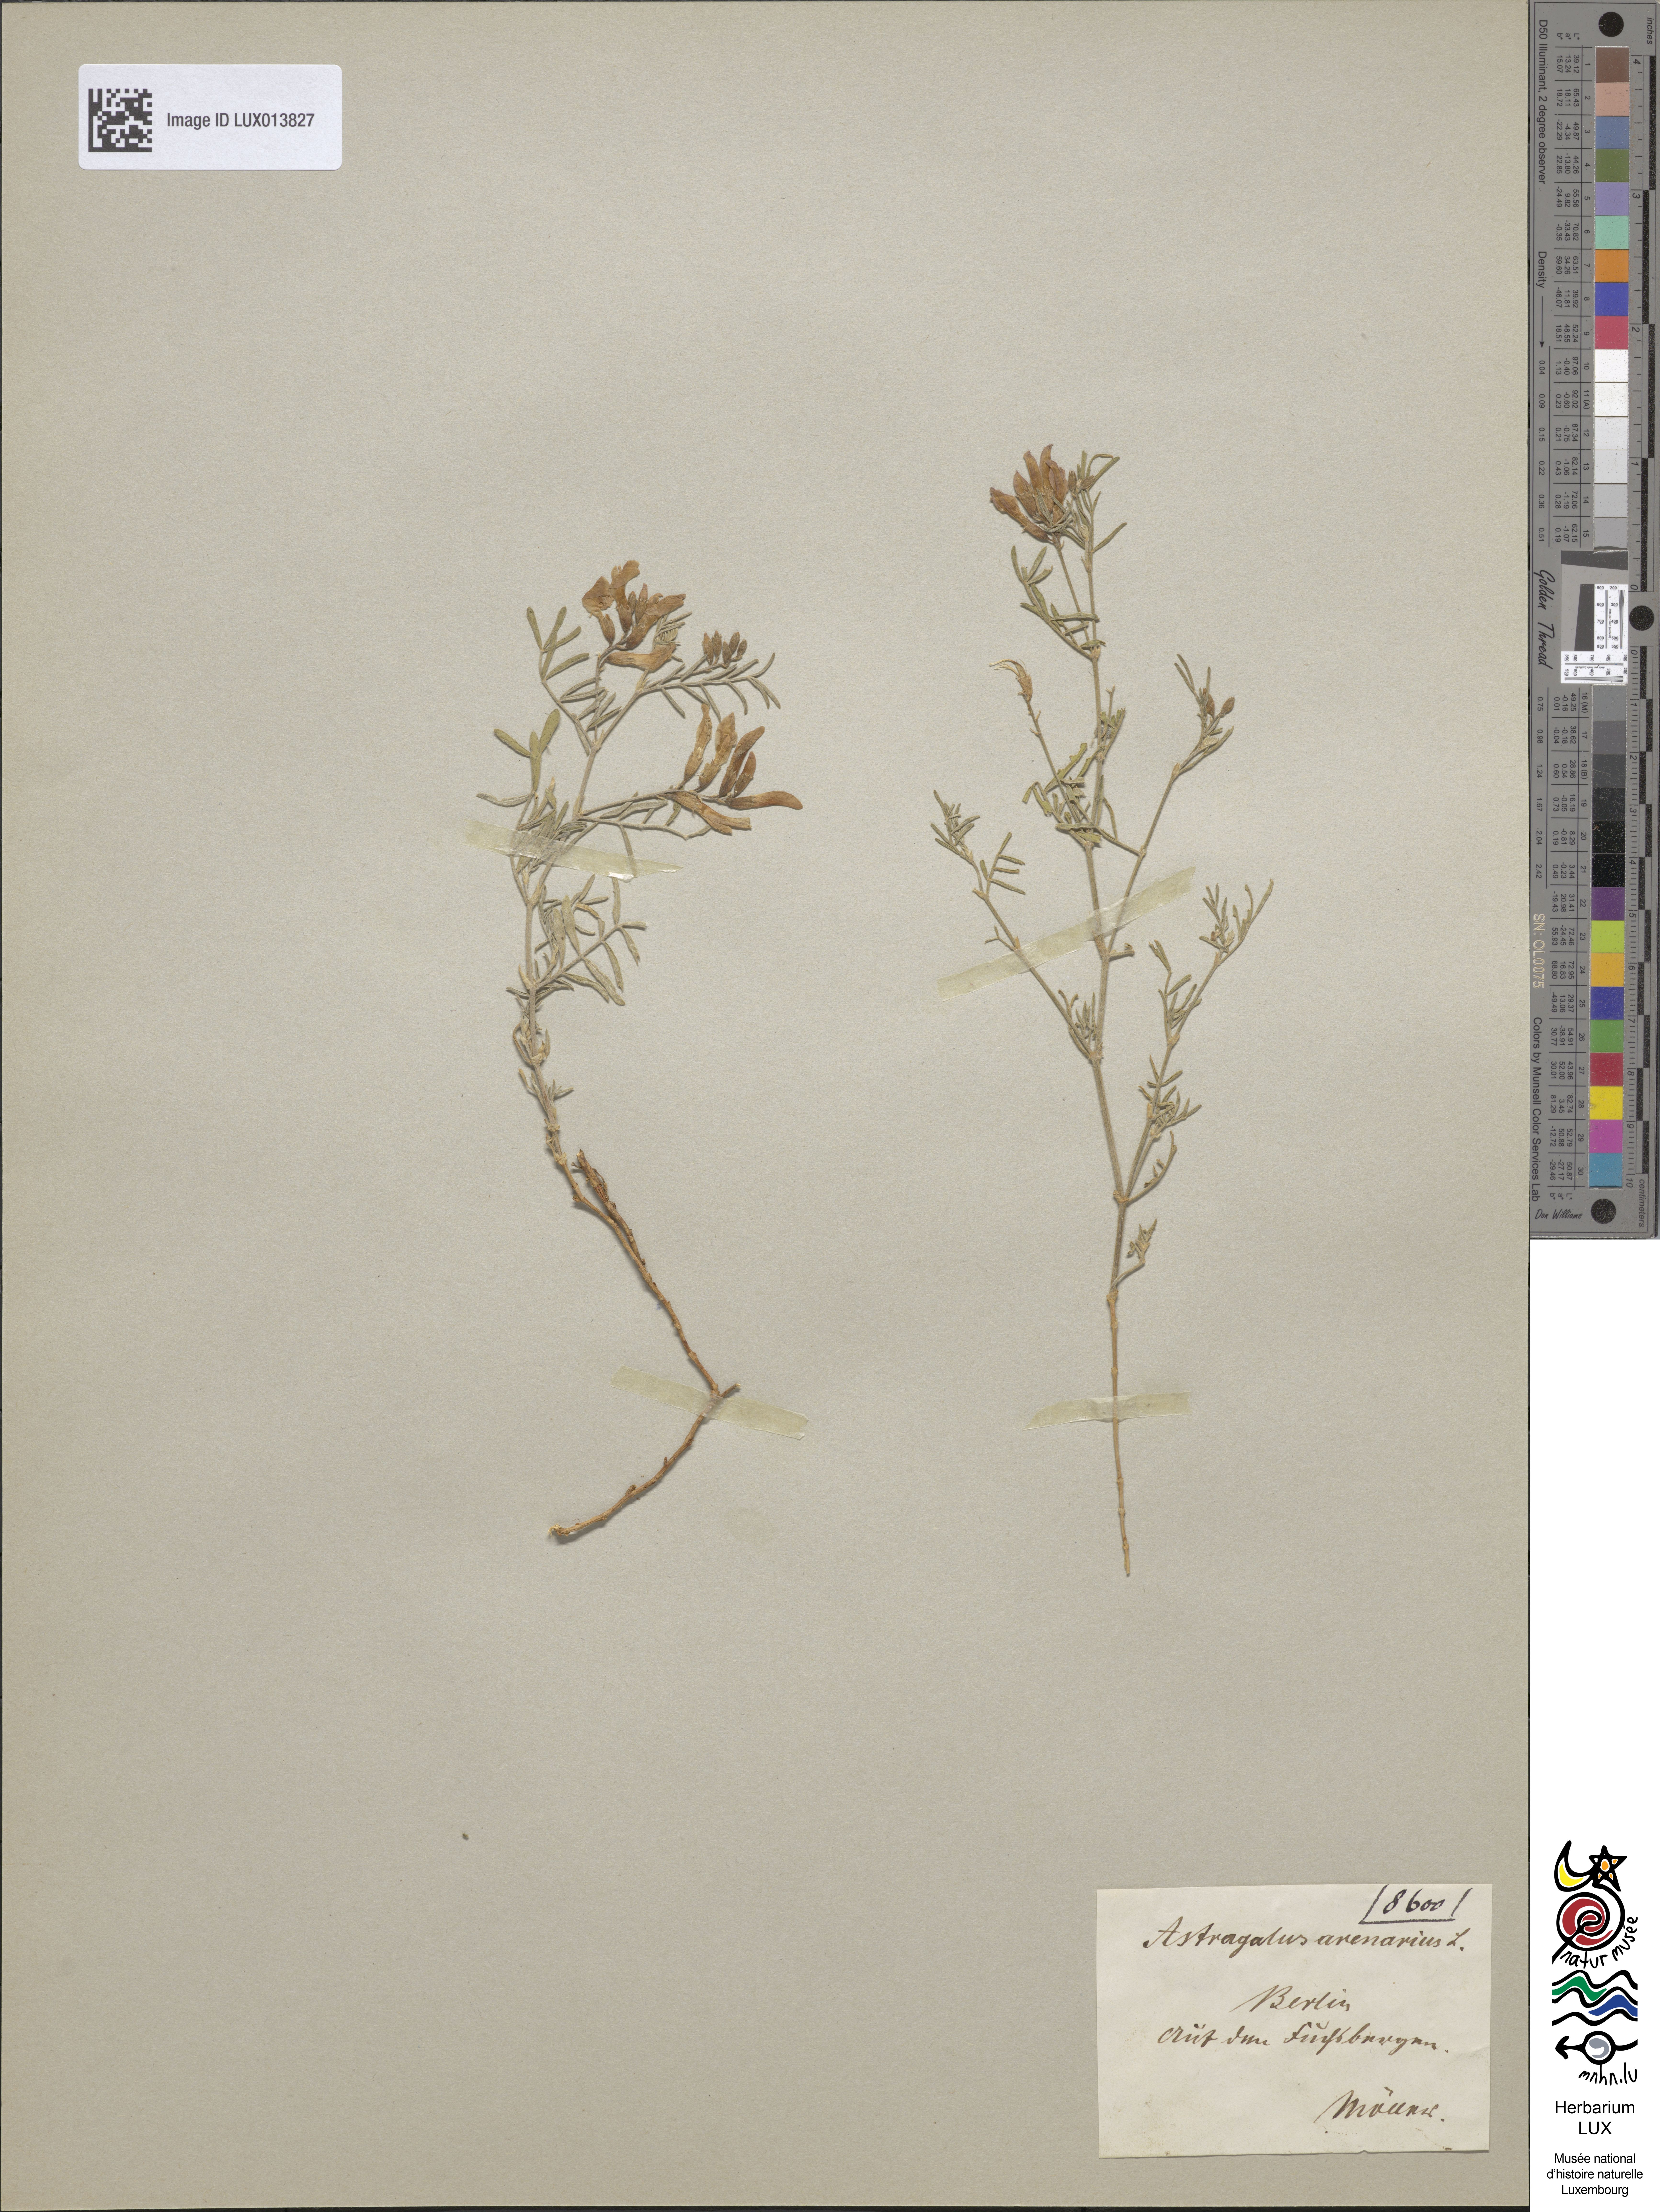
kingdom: Plantae
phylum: Tracheophyta
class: Magnoliopsida
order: Fabales
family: Fabaceae
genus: Astragalus
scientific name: Astragalus arenarius
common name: Arenarious milk-vetch
